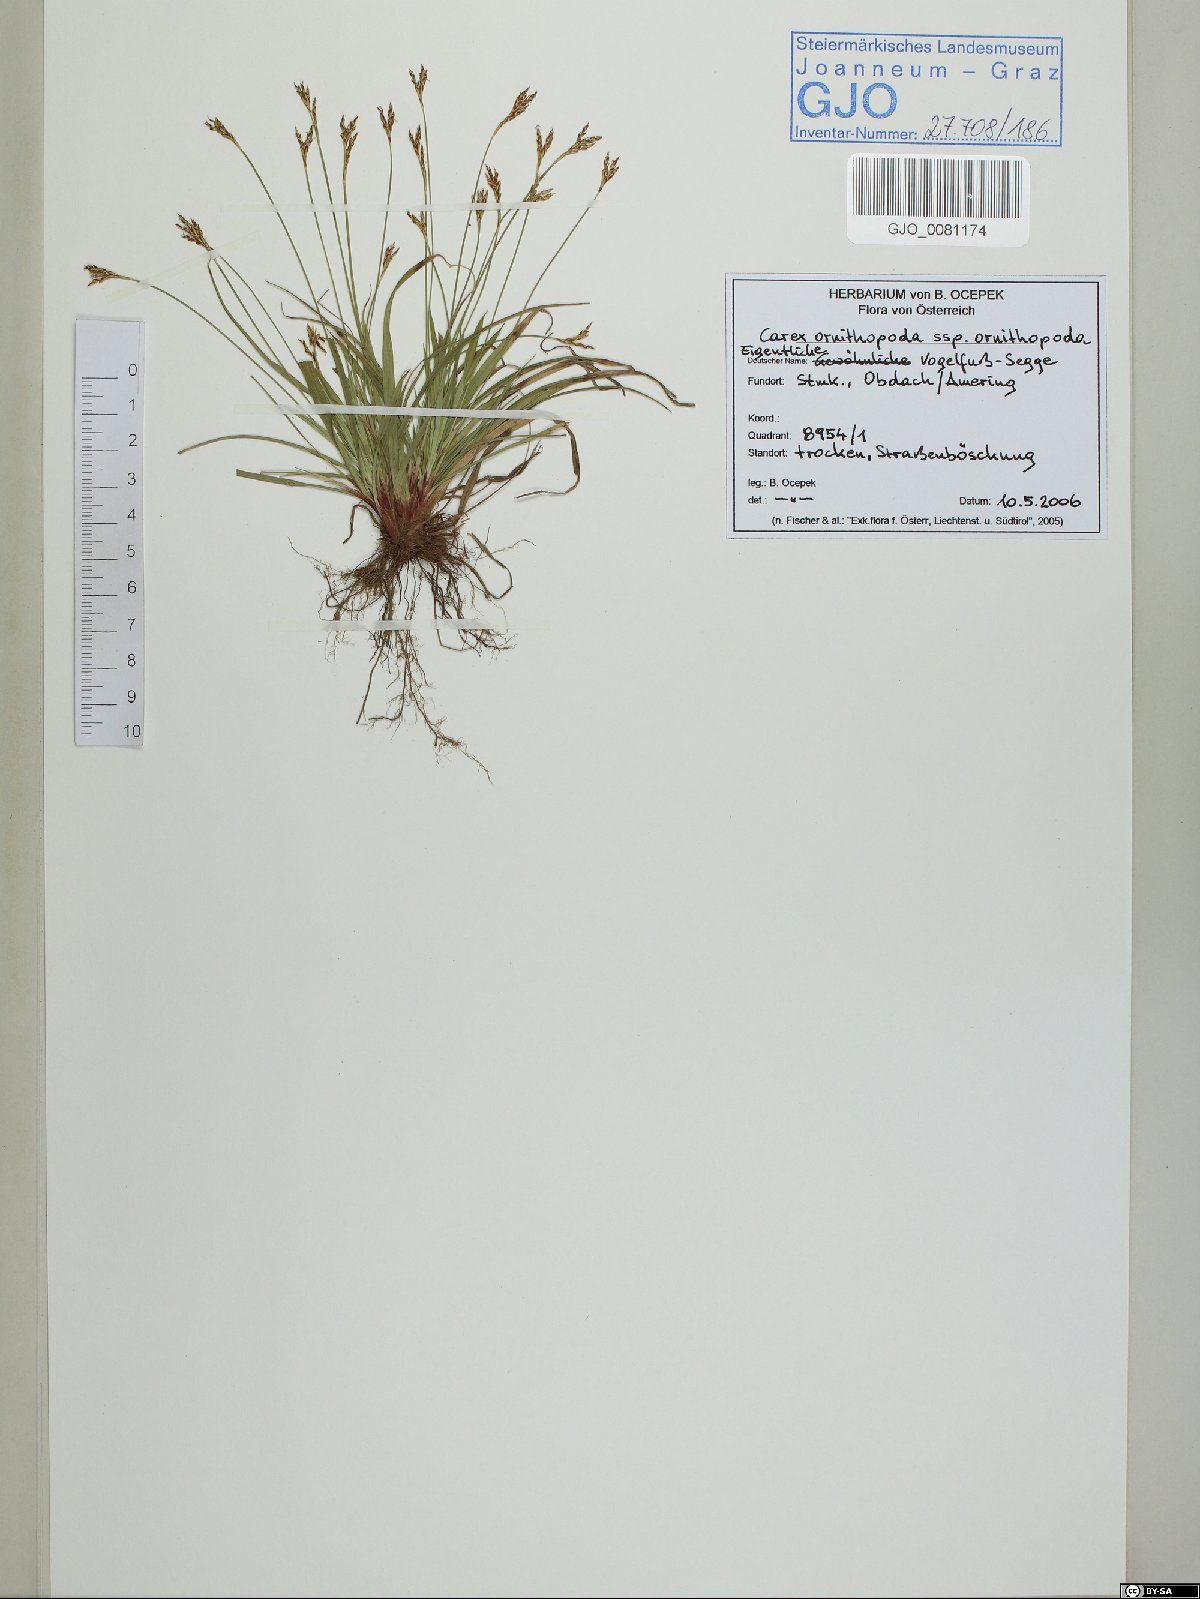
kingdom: Plantae
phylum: Tracheophyta
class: Liliopsida
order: Poales
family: Cyperaceae
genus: Carex
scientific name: Carex ornithopoda
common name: Bird's-foot sedge
